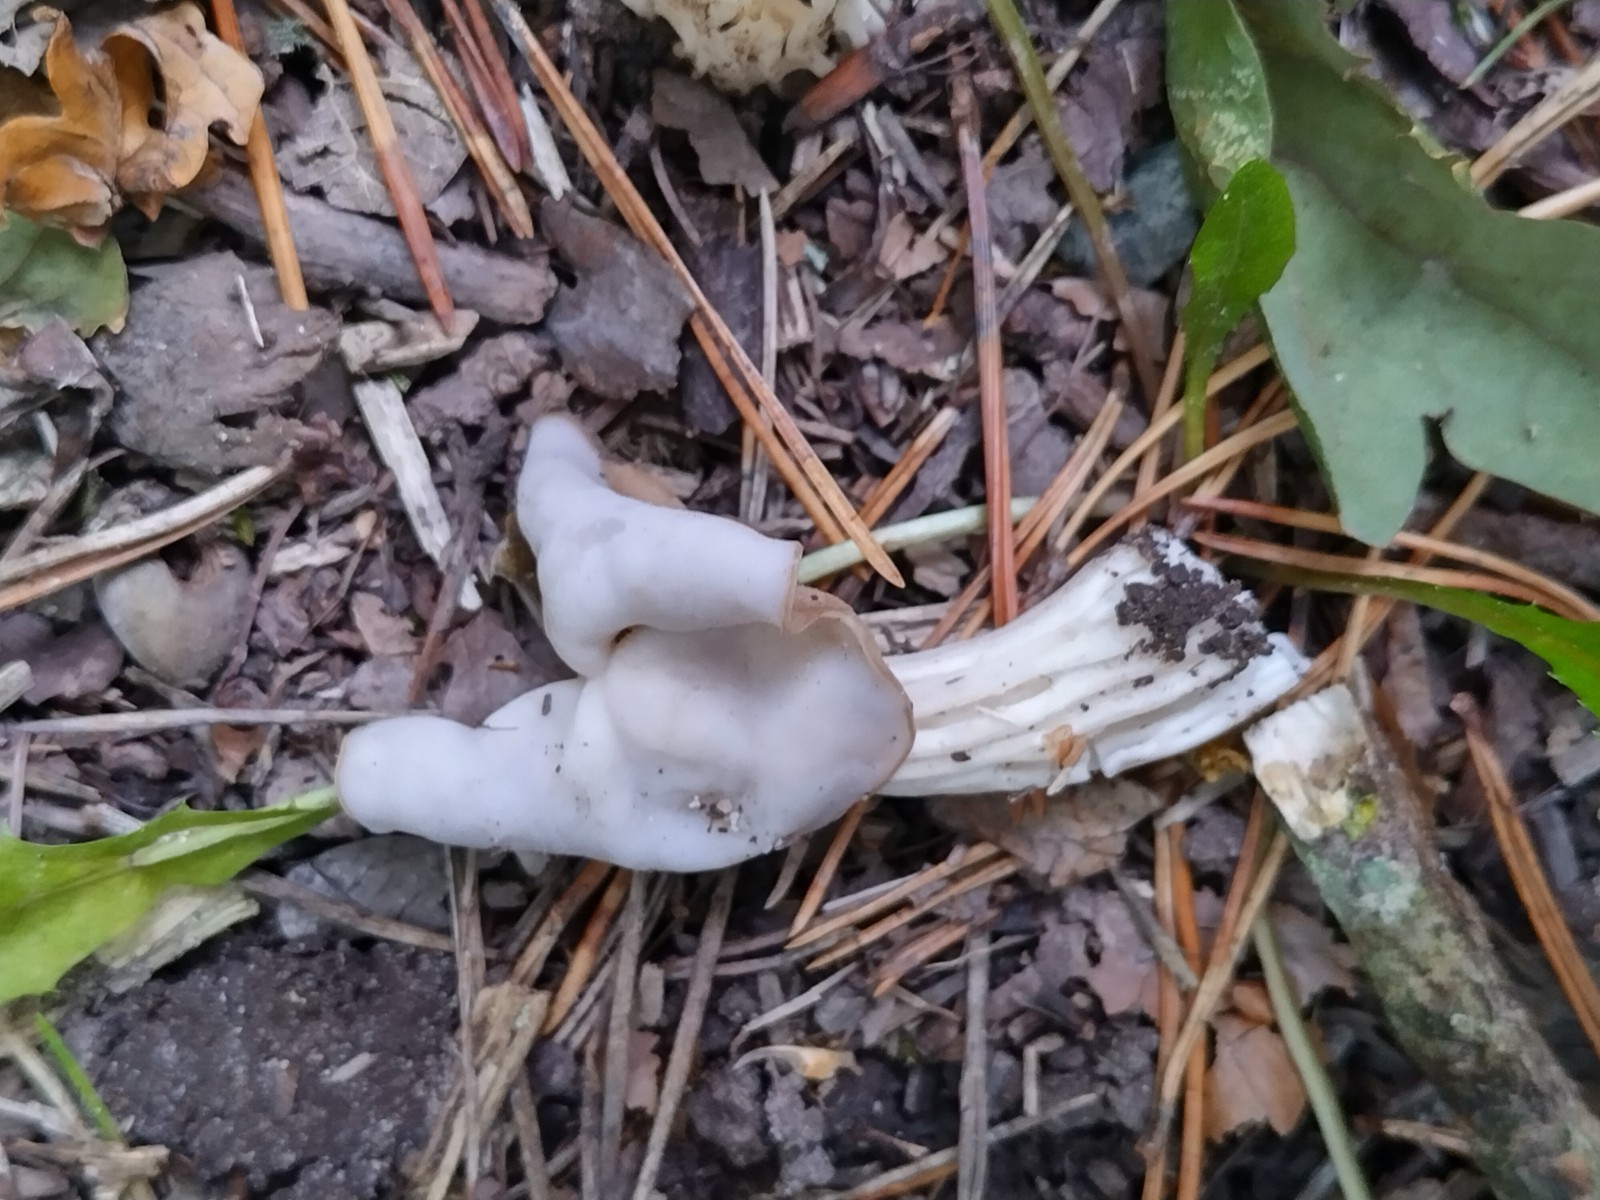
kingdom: Fungi
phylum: Ascomycota
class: Pezizomycetes
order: Pezizales
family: Helvellaceae
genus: Helvella
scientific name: Helvella crispa
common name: kruset foldhat
